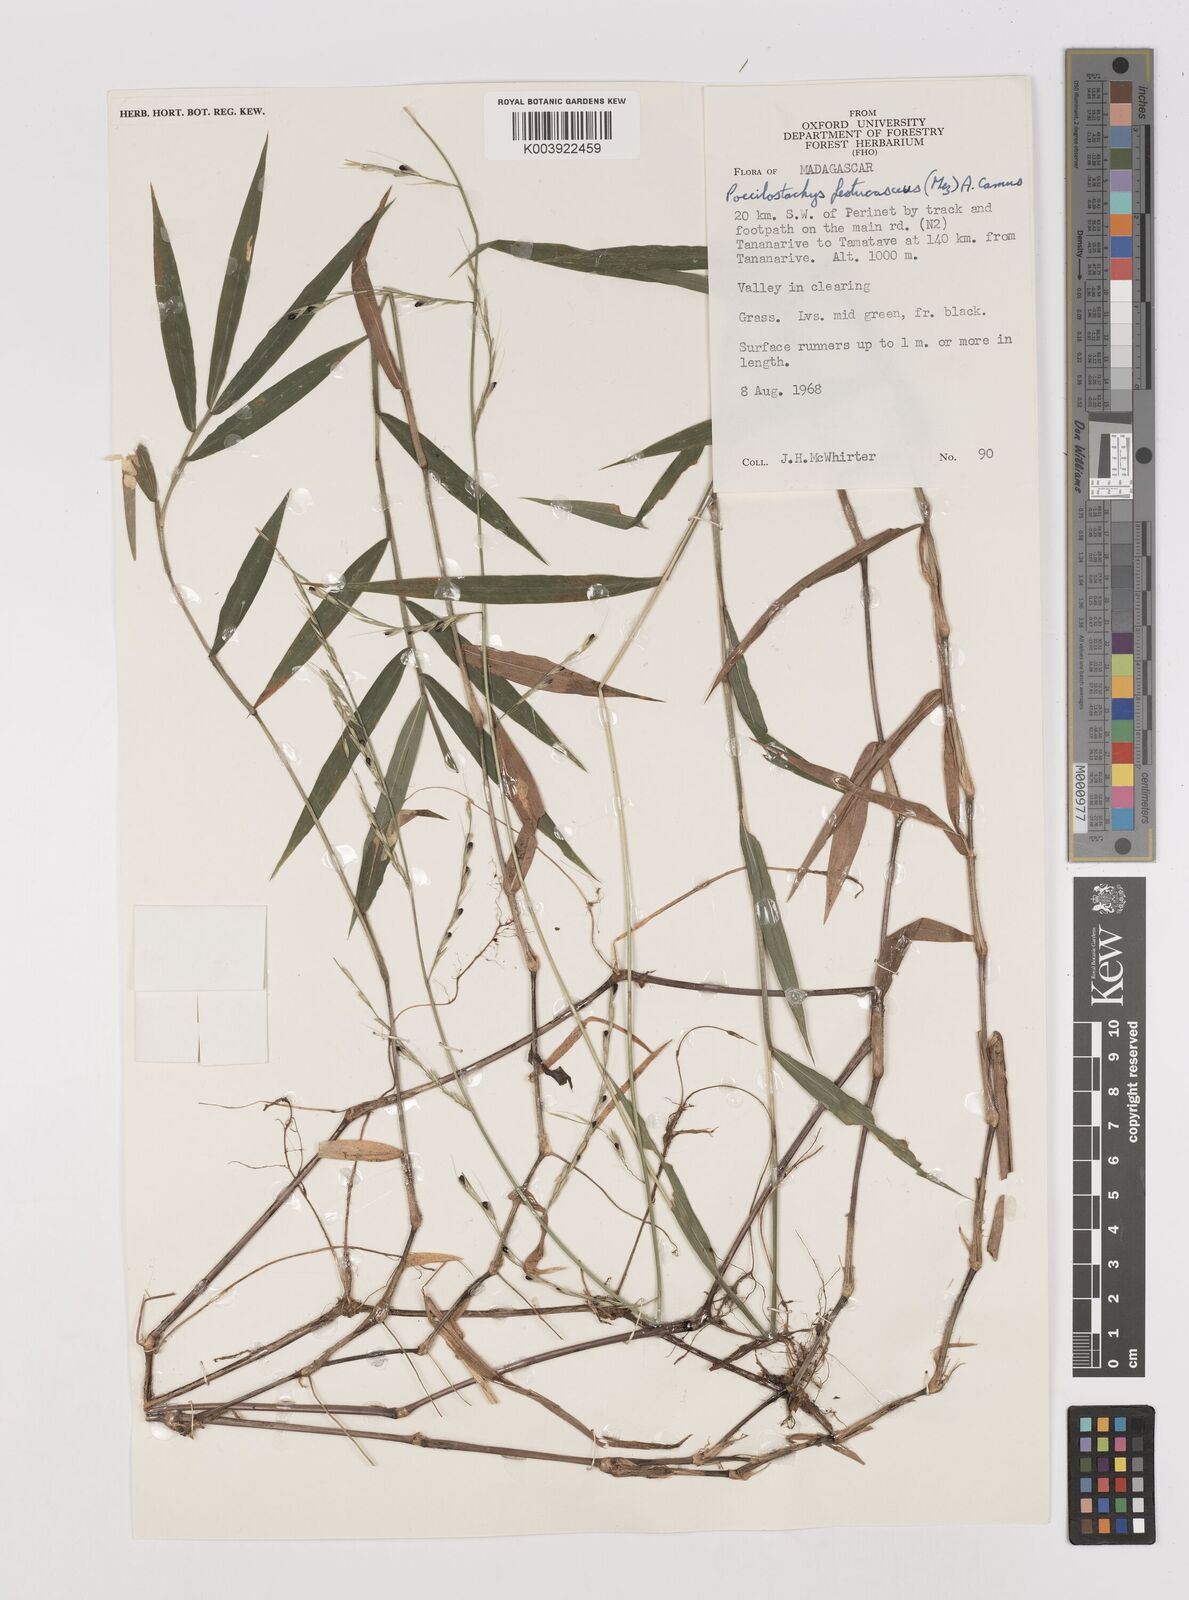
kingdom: Plantae
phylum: Tracheophyta
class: Liliopsida
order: Poales
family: Poaceae
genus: Poecilostachys
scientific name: Poecilostachys baronis
